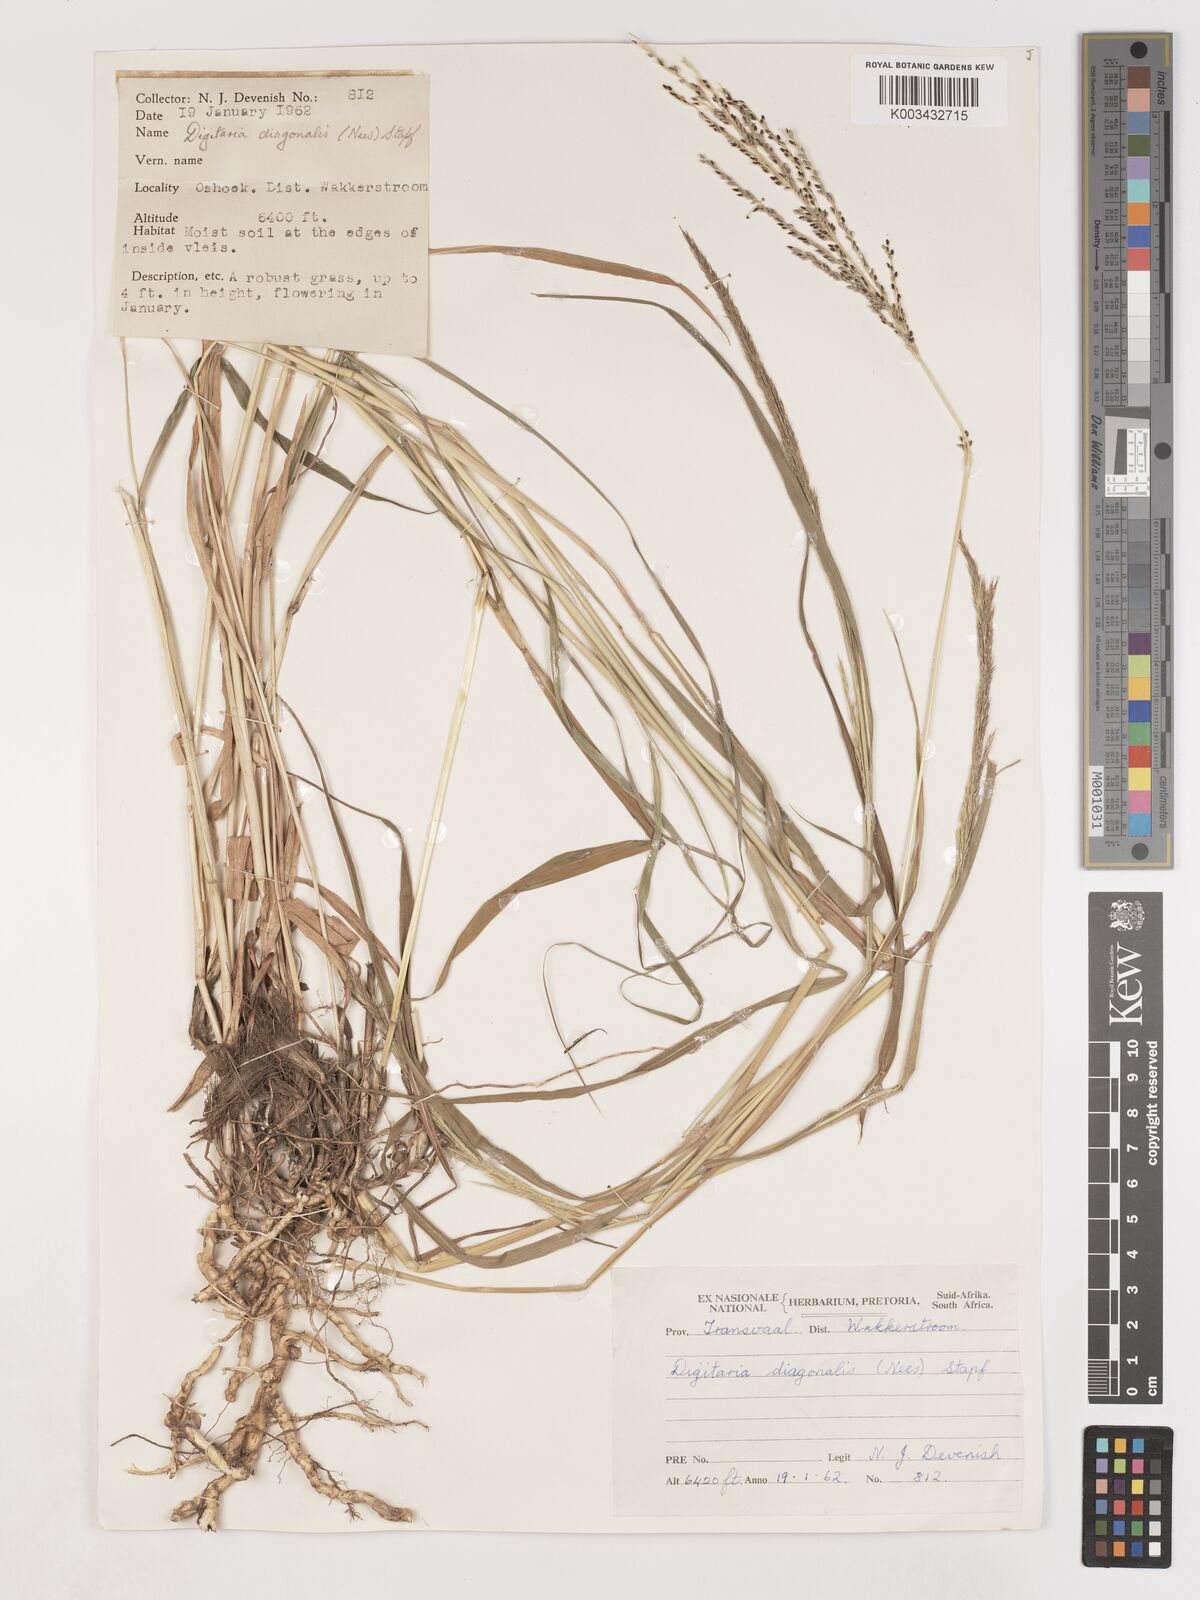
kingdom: Plantae
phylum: Tracheophyta
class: Liliopsida
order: Poales
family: Poaceae
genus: Digitaria
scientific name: Digitaria diagonalis
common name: Brown-seed finger grass
